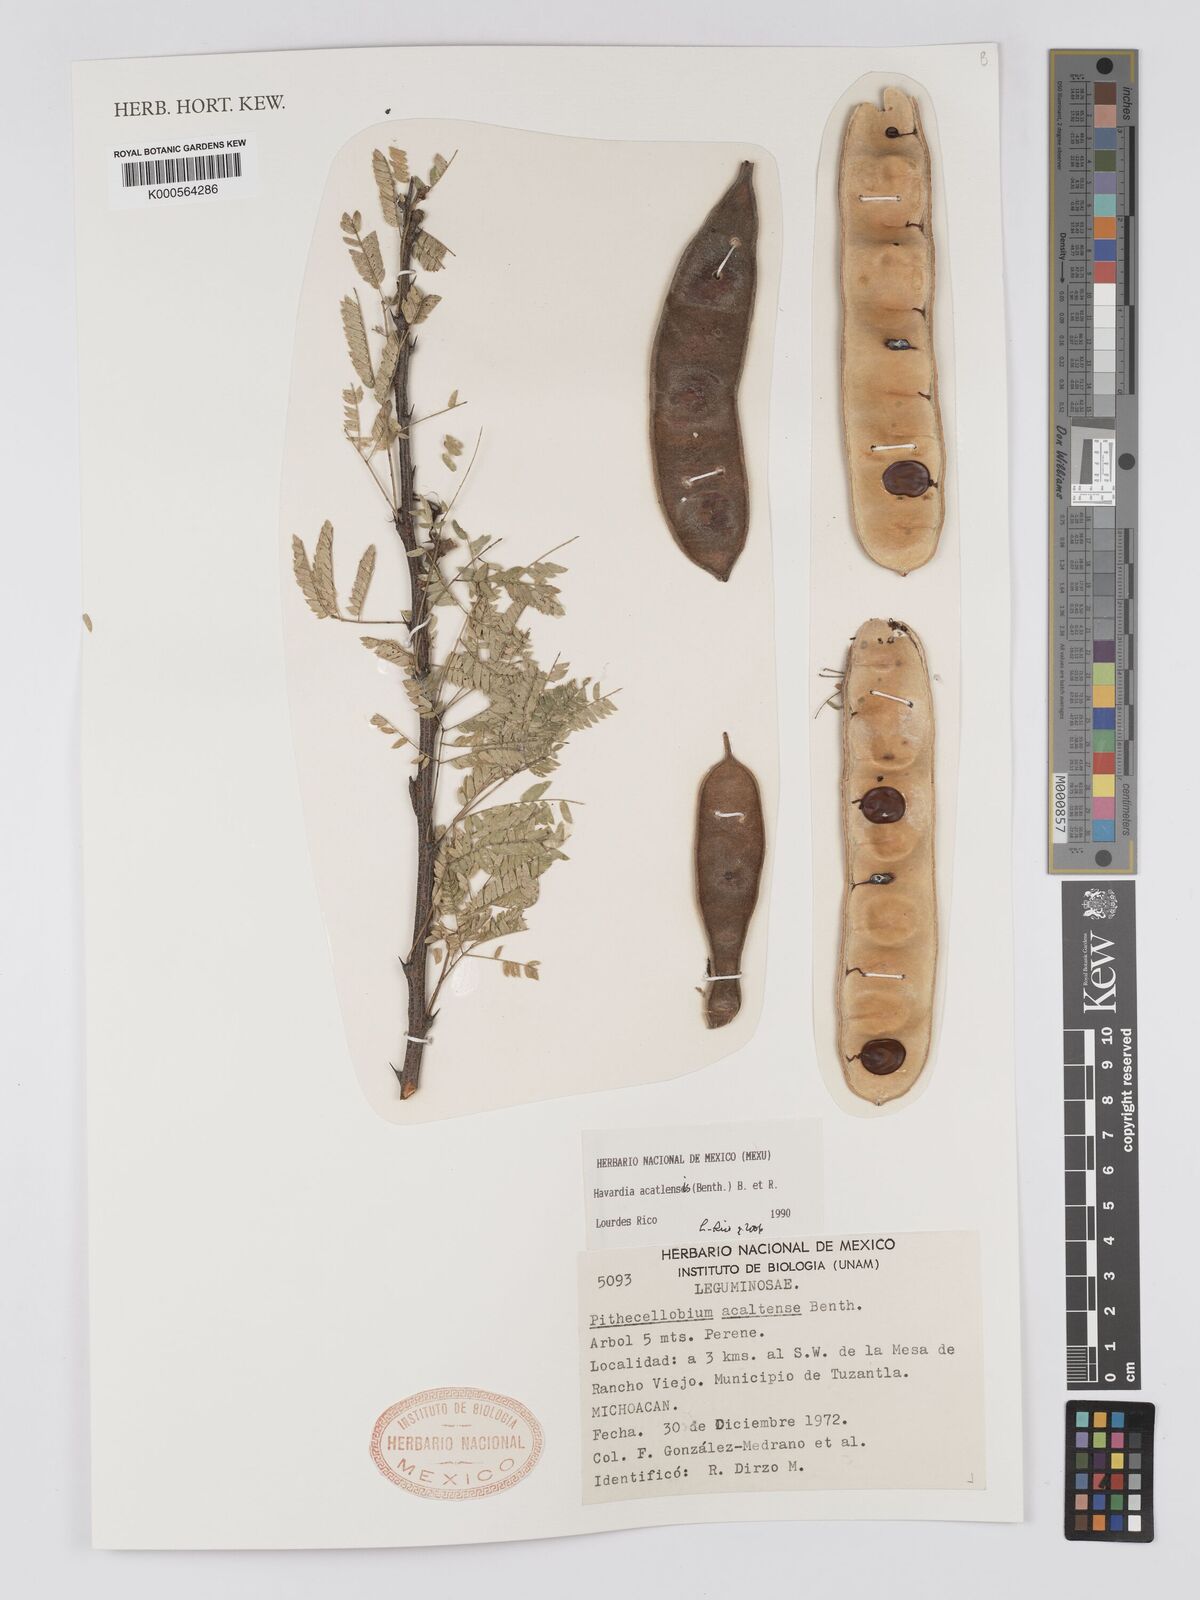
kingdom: Plantae
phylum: Tracheophyta
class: Magnoliopsida
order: Fabales
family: Fabaceae
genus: Havardia
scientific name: Havardia acatlensis
